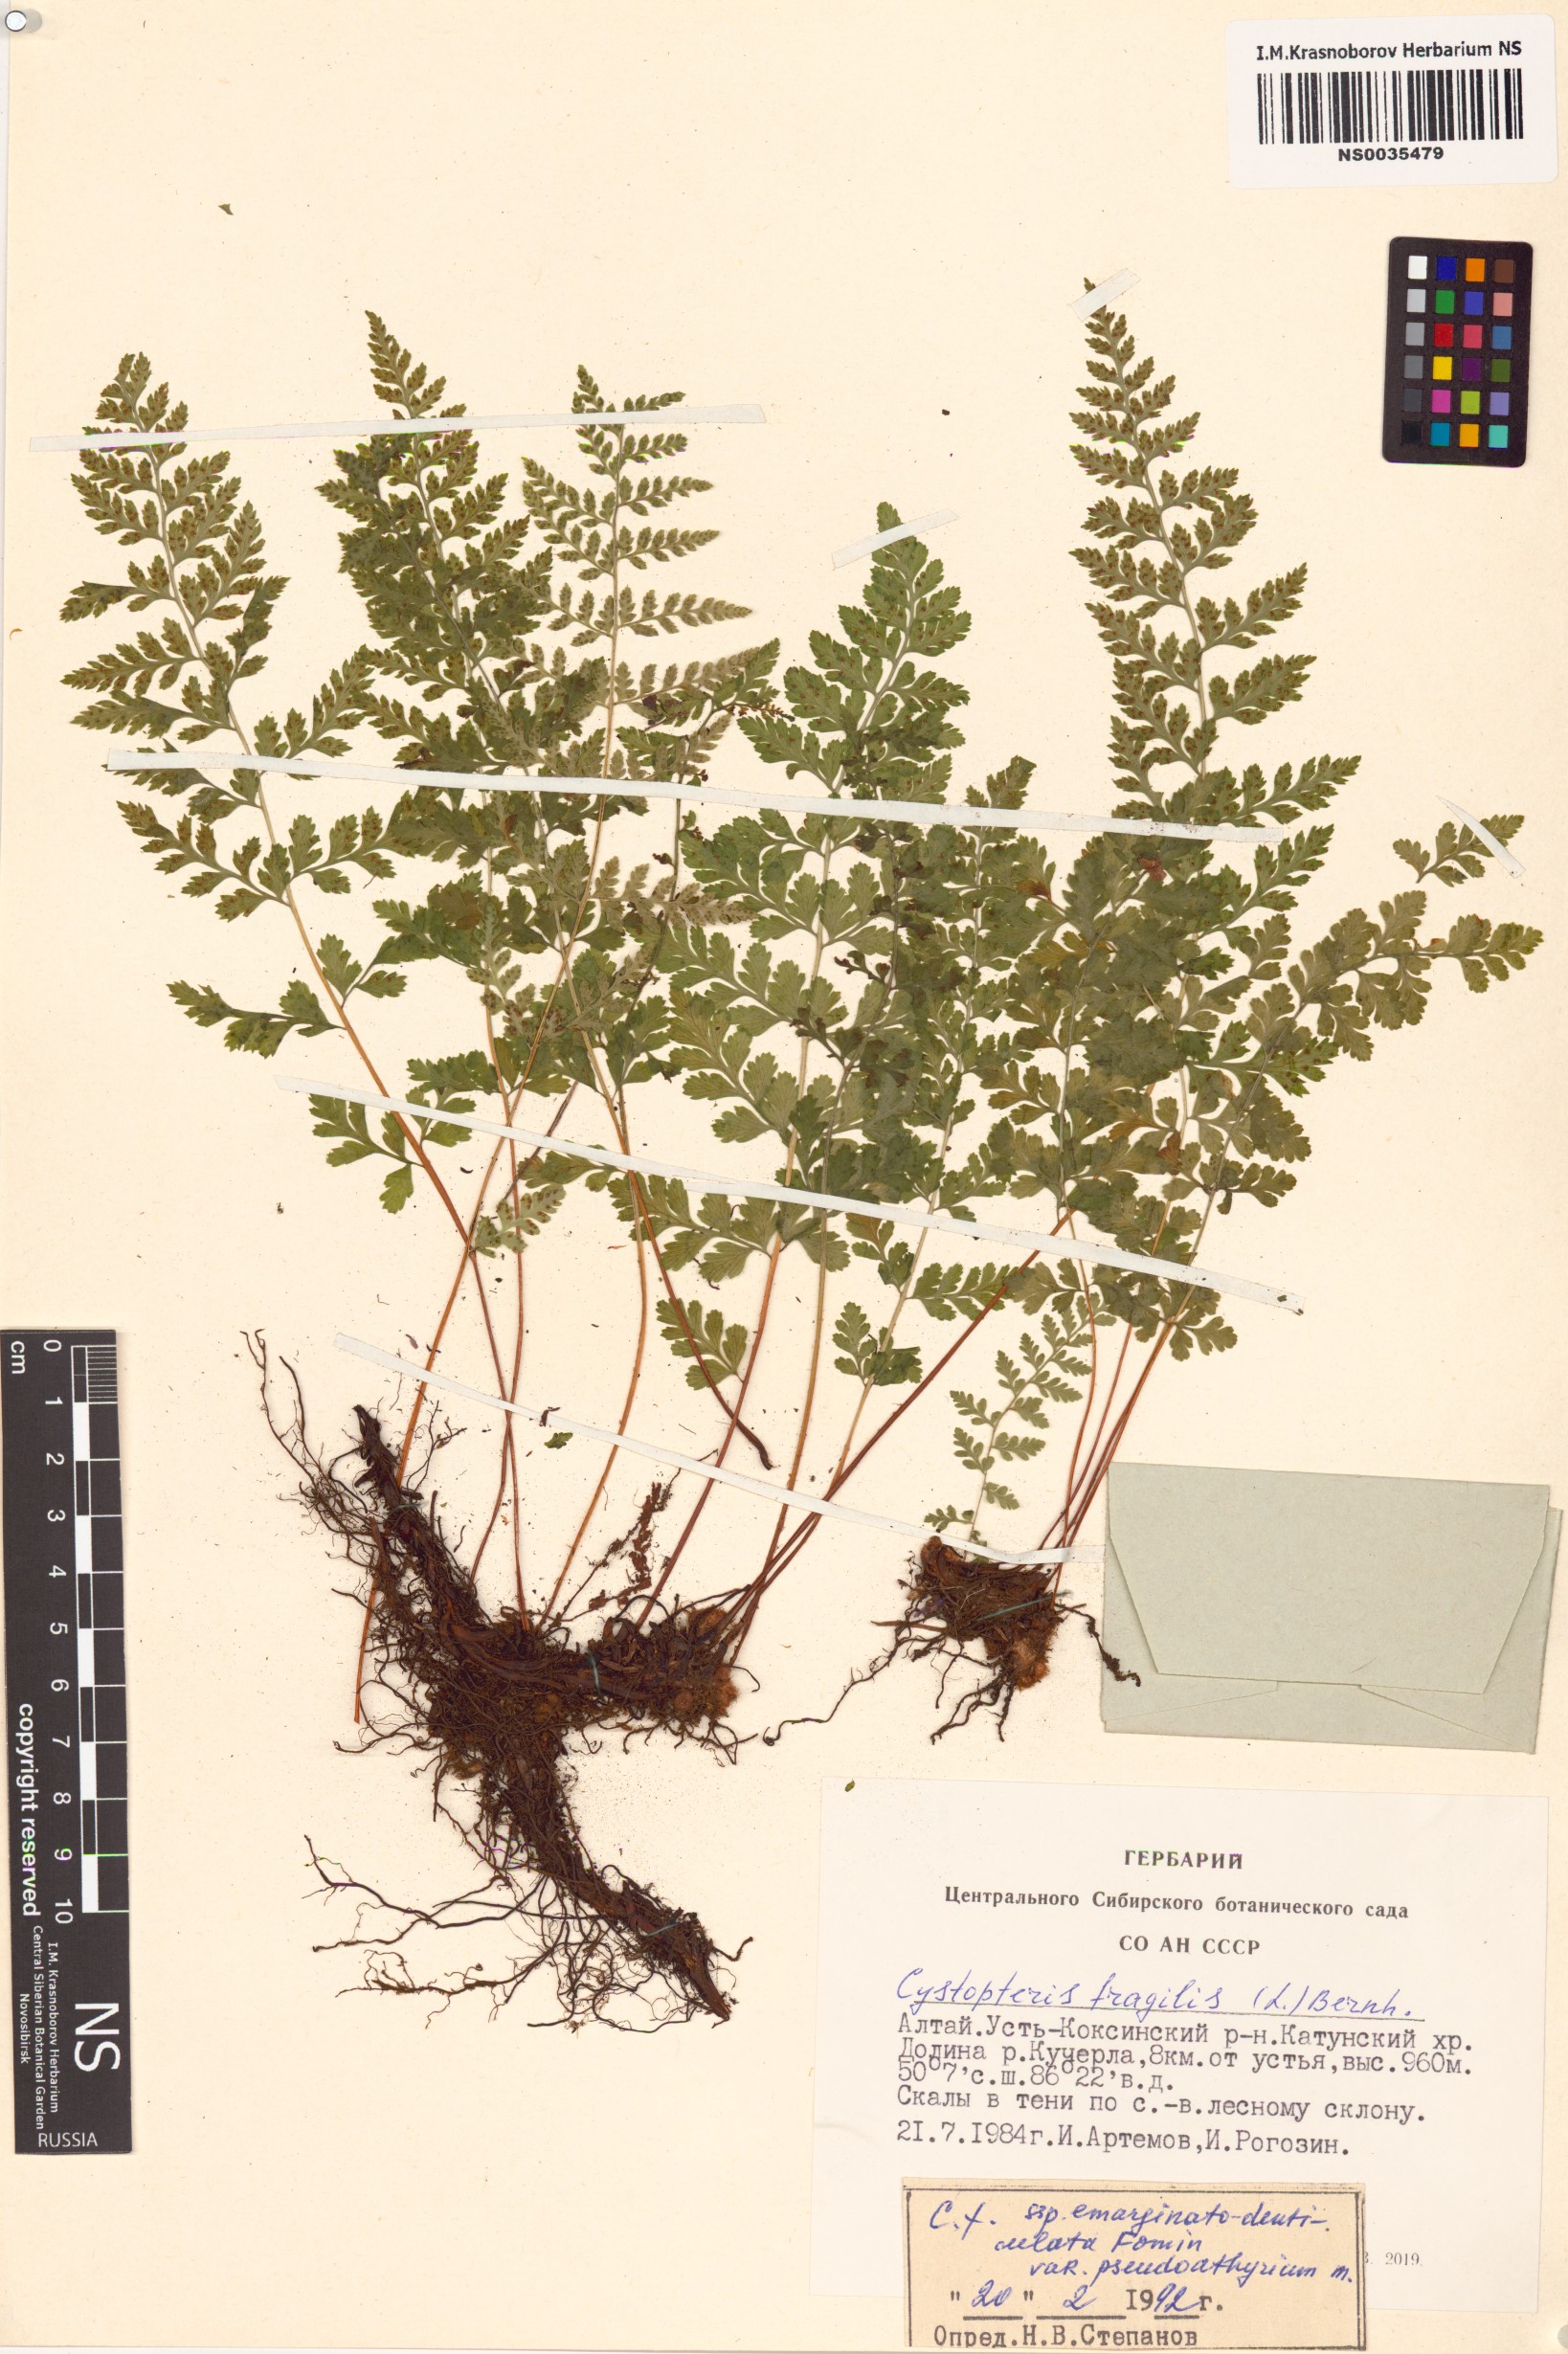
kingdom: Plantae
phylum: Tracheophyta
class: Polypodiopsida
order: Polypodiales
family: Cystopteridaceae
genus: Cystopteris
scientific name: Cystopteris diaphana
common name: Greenish bladder-fern
